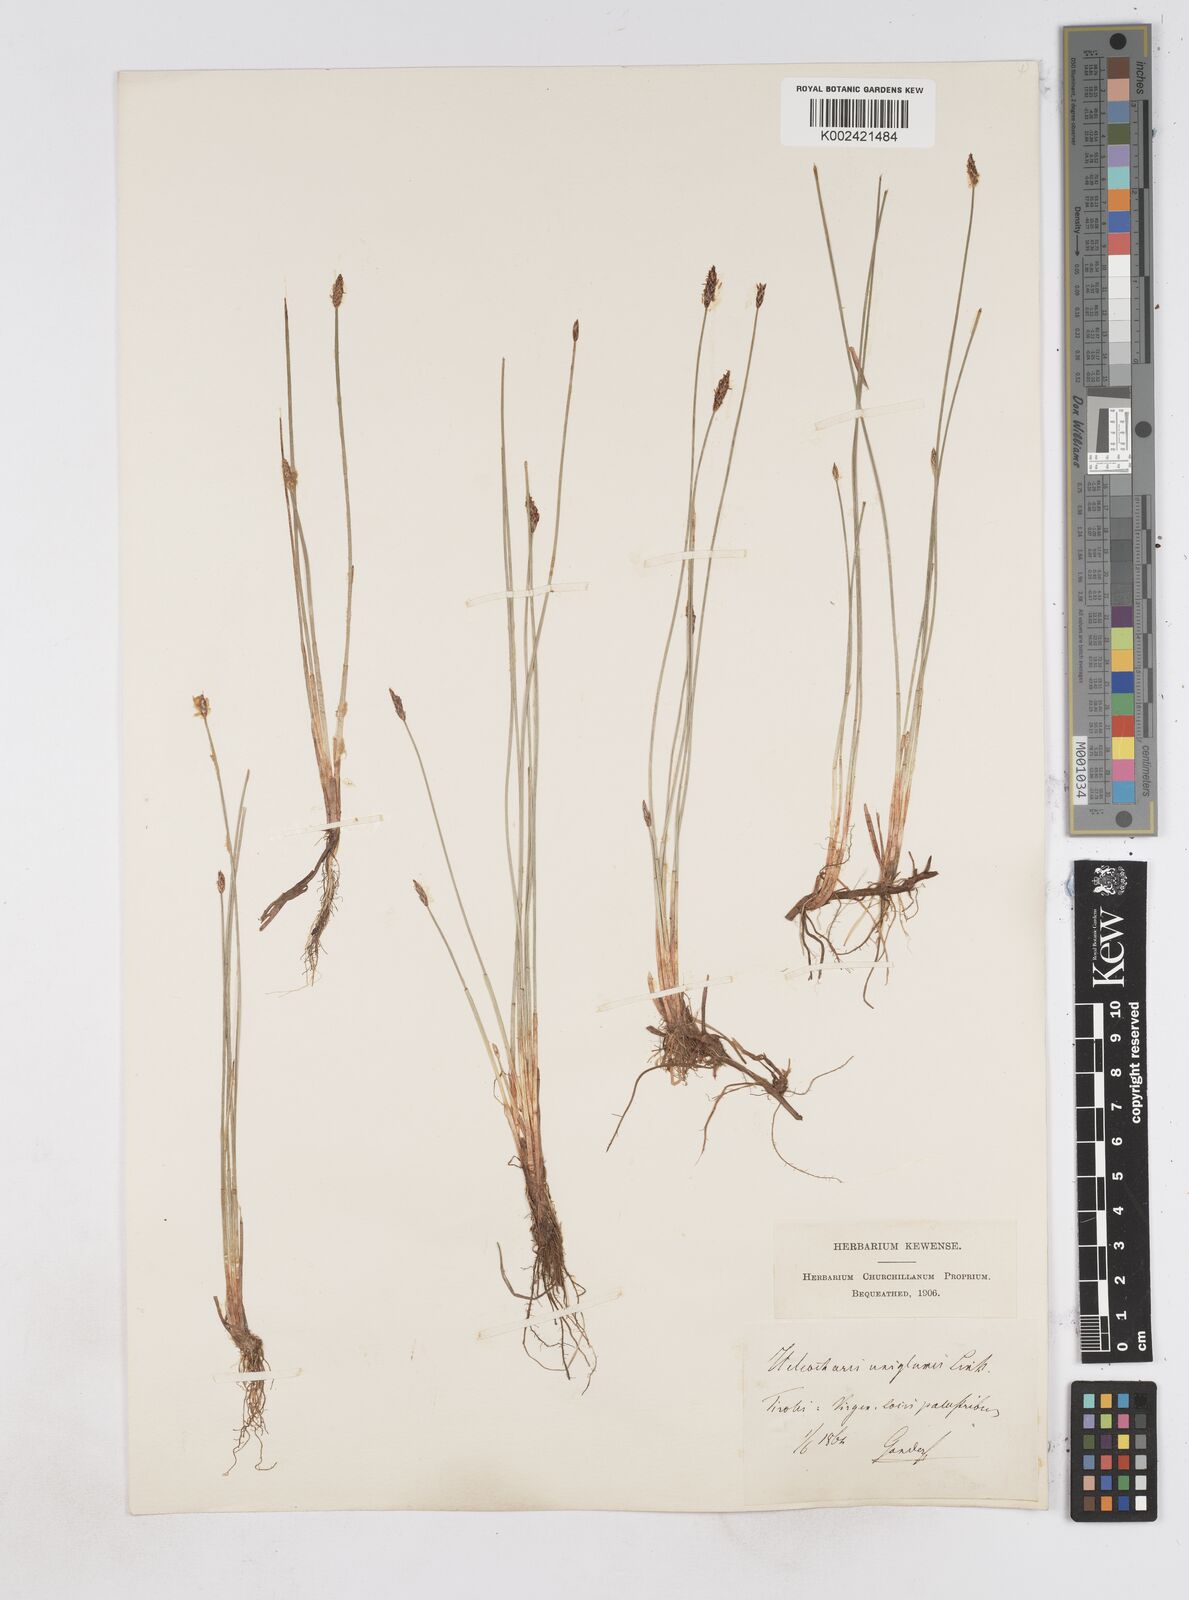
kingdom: Plantae
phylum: Tracheophyta
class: Liliopsida
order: Poales
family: Cyperaceae
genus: Eleocharis
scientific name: Eleocharis uniglumis
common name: Slender spike-rush
